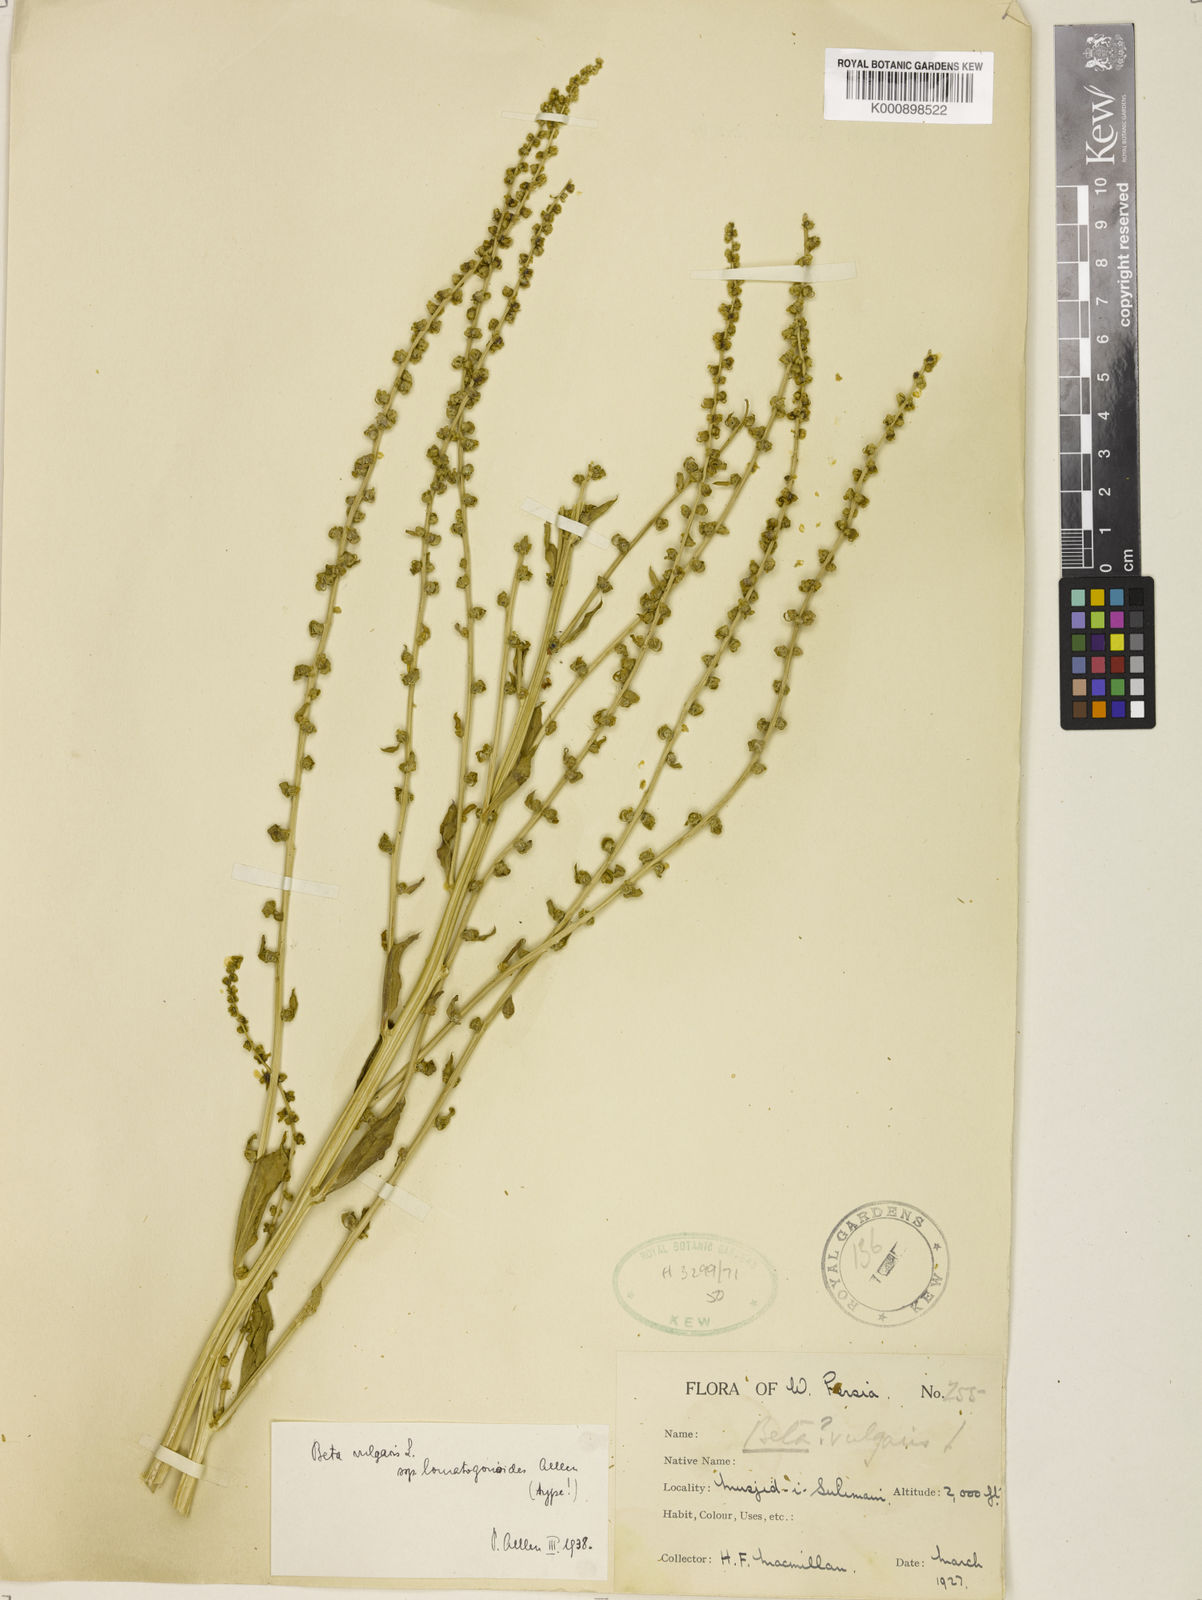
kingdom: Plantae
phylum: Tracheophyta
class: Magnoliopsida
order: Caryophyllales
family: Amaranthaceae
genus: Beta
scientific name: Beta vulgaris
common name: Beet
